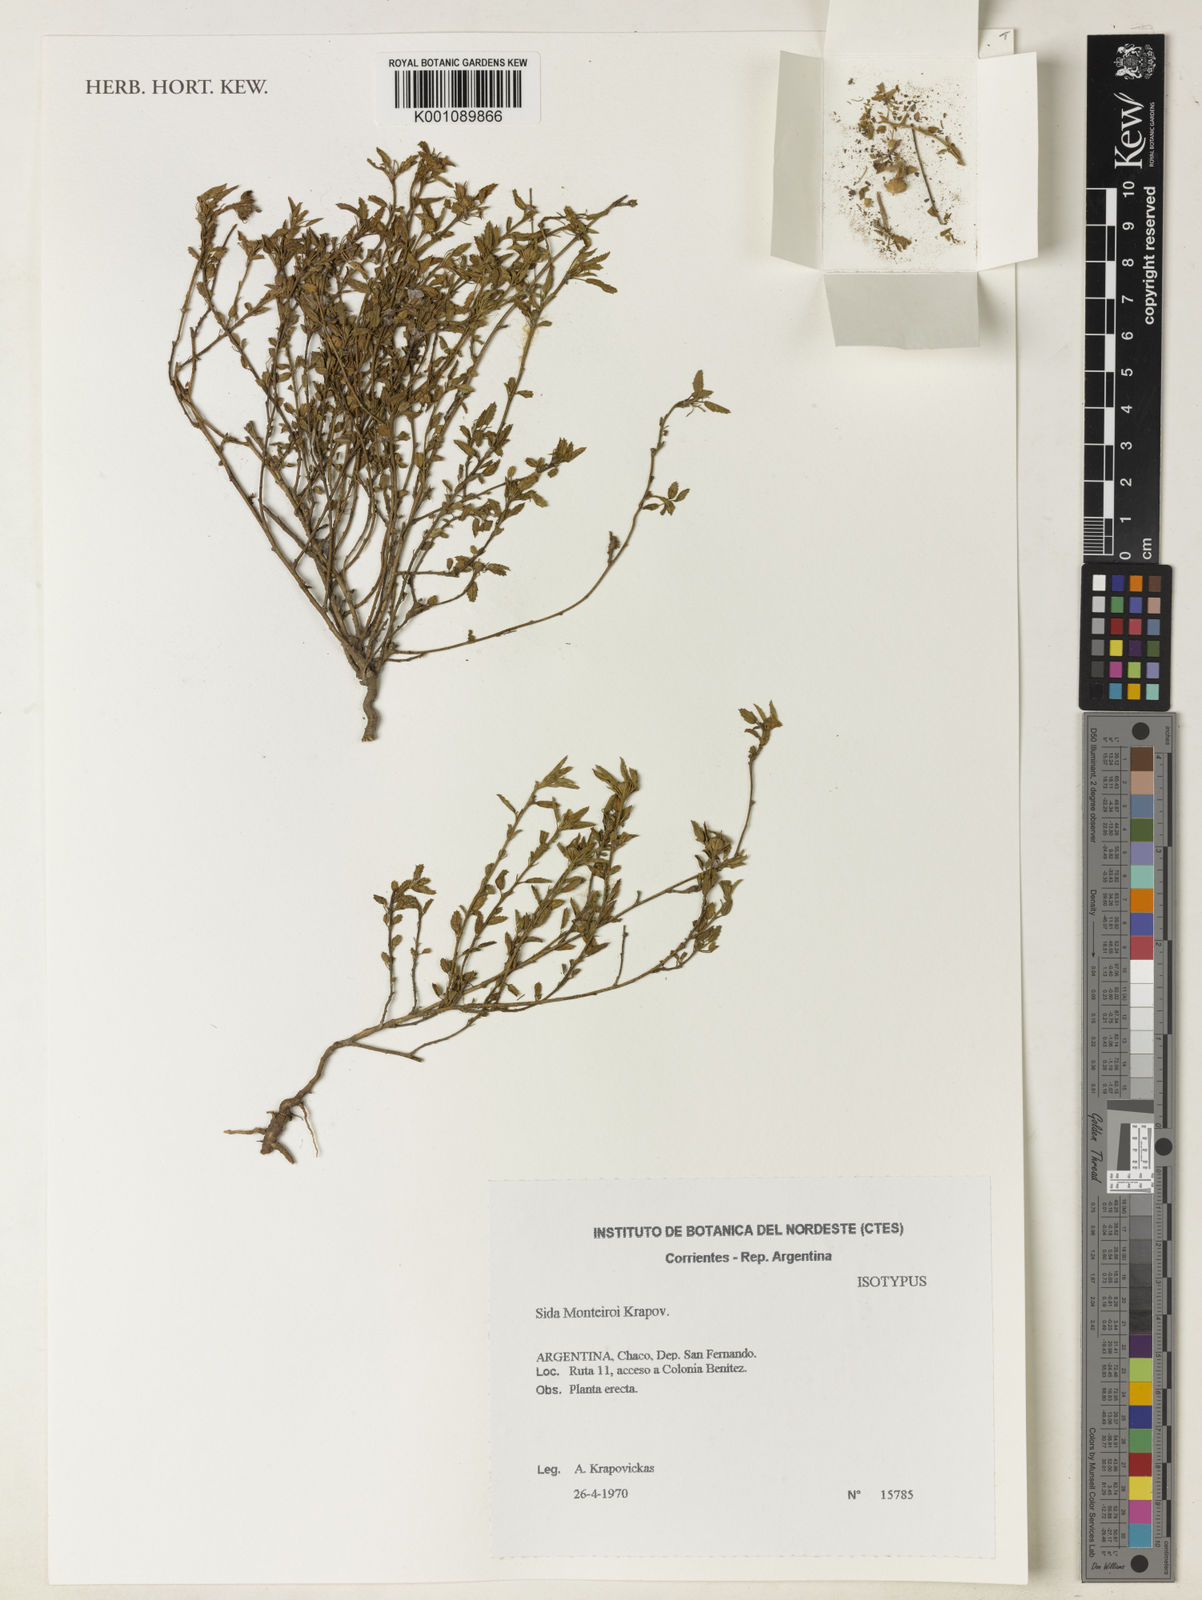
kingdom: Plantae
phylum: Tracheophyta
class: Magnoliopsida
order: Malvales
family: Malvaceae
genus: Sida
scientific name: Sida monteiroi
